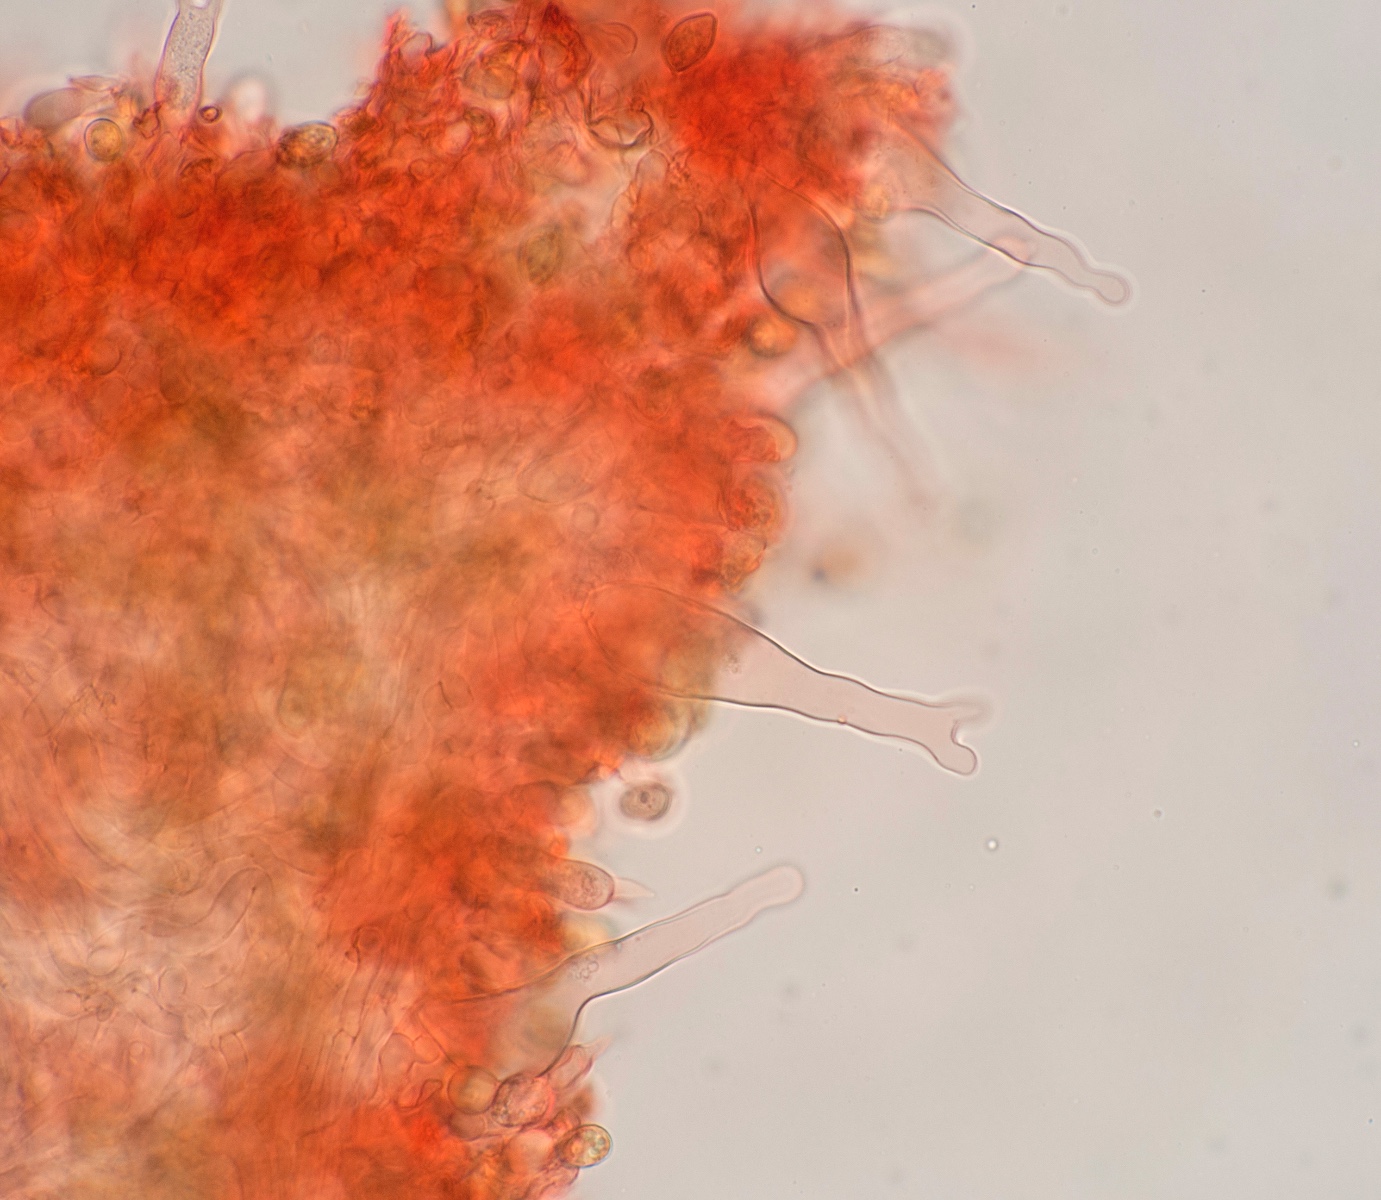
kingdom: Fungi
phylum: Basidiomycota
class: Agaricomycetes
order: Agaricales
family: Hymenogastraceae
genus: Galerina
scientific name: Galerina vittiformis
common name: Hairy leg bell
